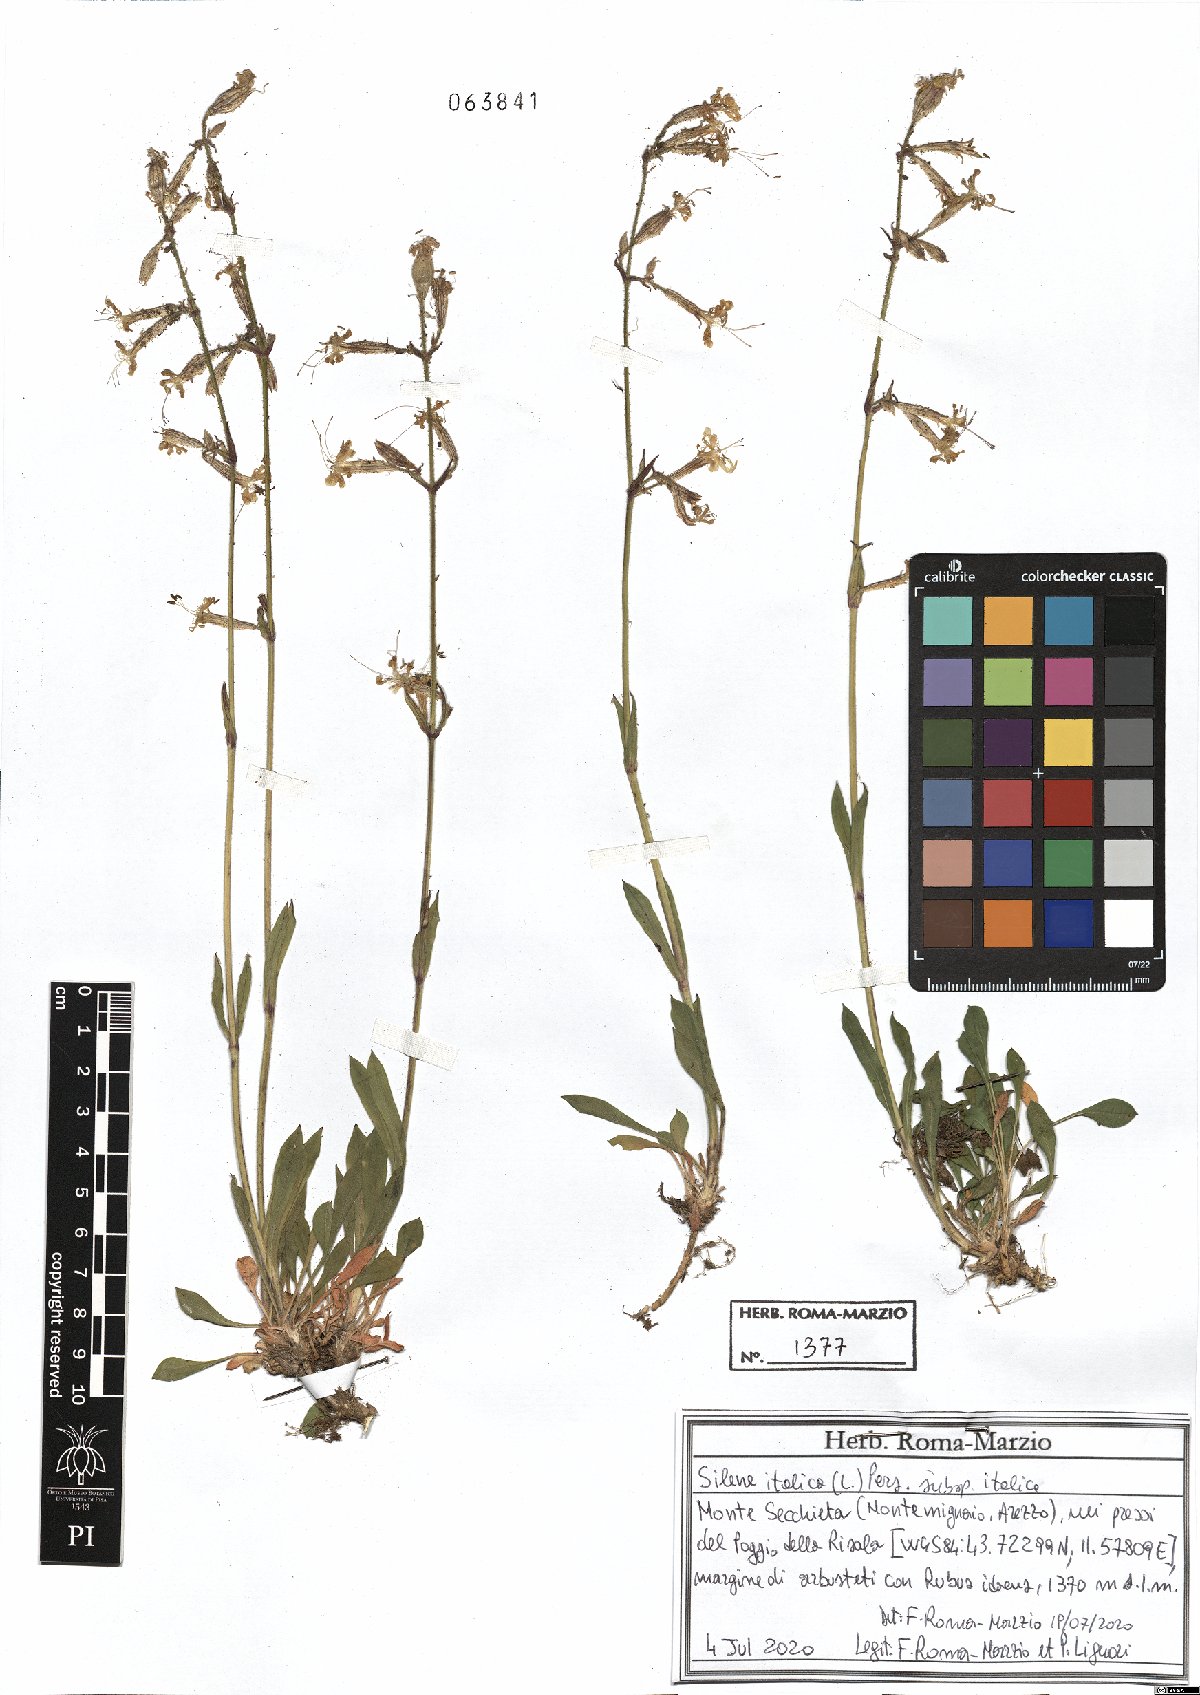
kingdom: Plantae
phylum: Tracheophyta
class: Magnoliopsida
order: Caryophyllales
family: Caryophyllaceae
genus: Silene
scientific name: Silene italica
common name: Italian catchfly
